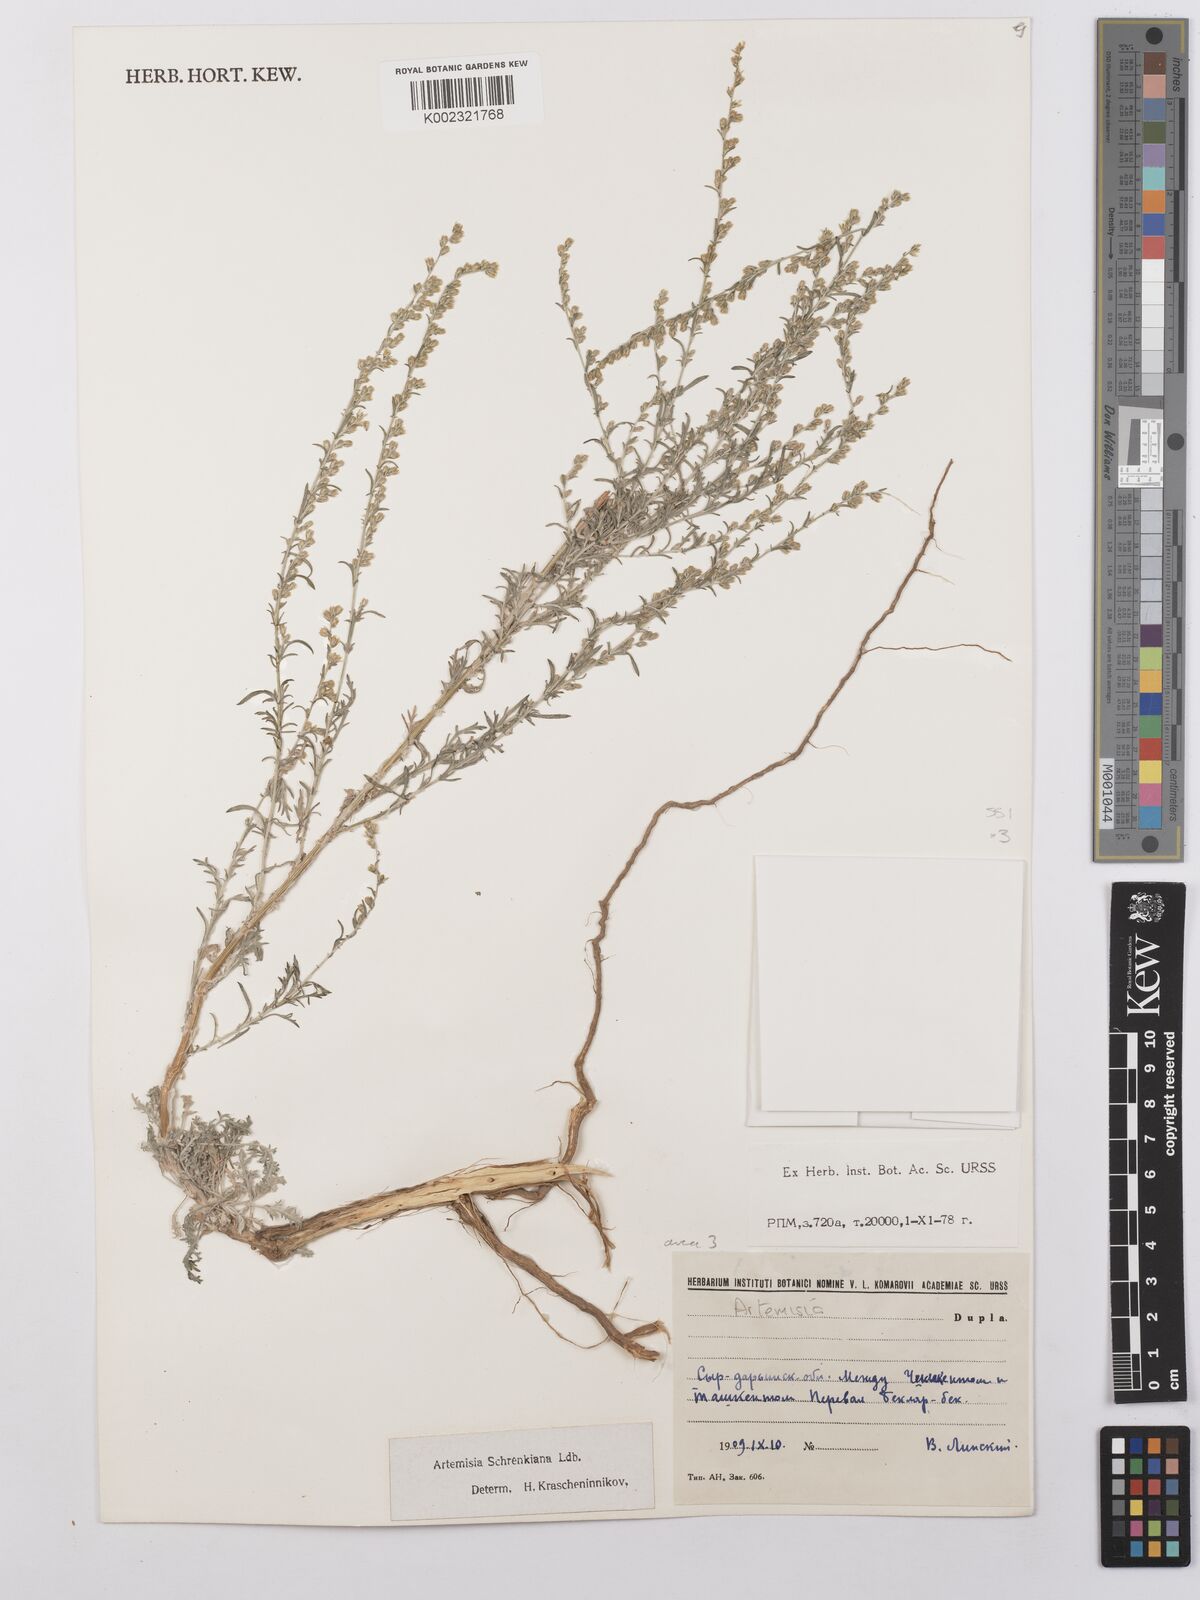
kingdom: Plantae
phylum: Tracheophyta
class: Magnoliopsida
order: Asterales
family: Asteraceae
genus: Artemisia
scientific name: Artemisia schrenkiana
